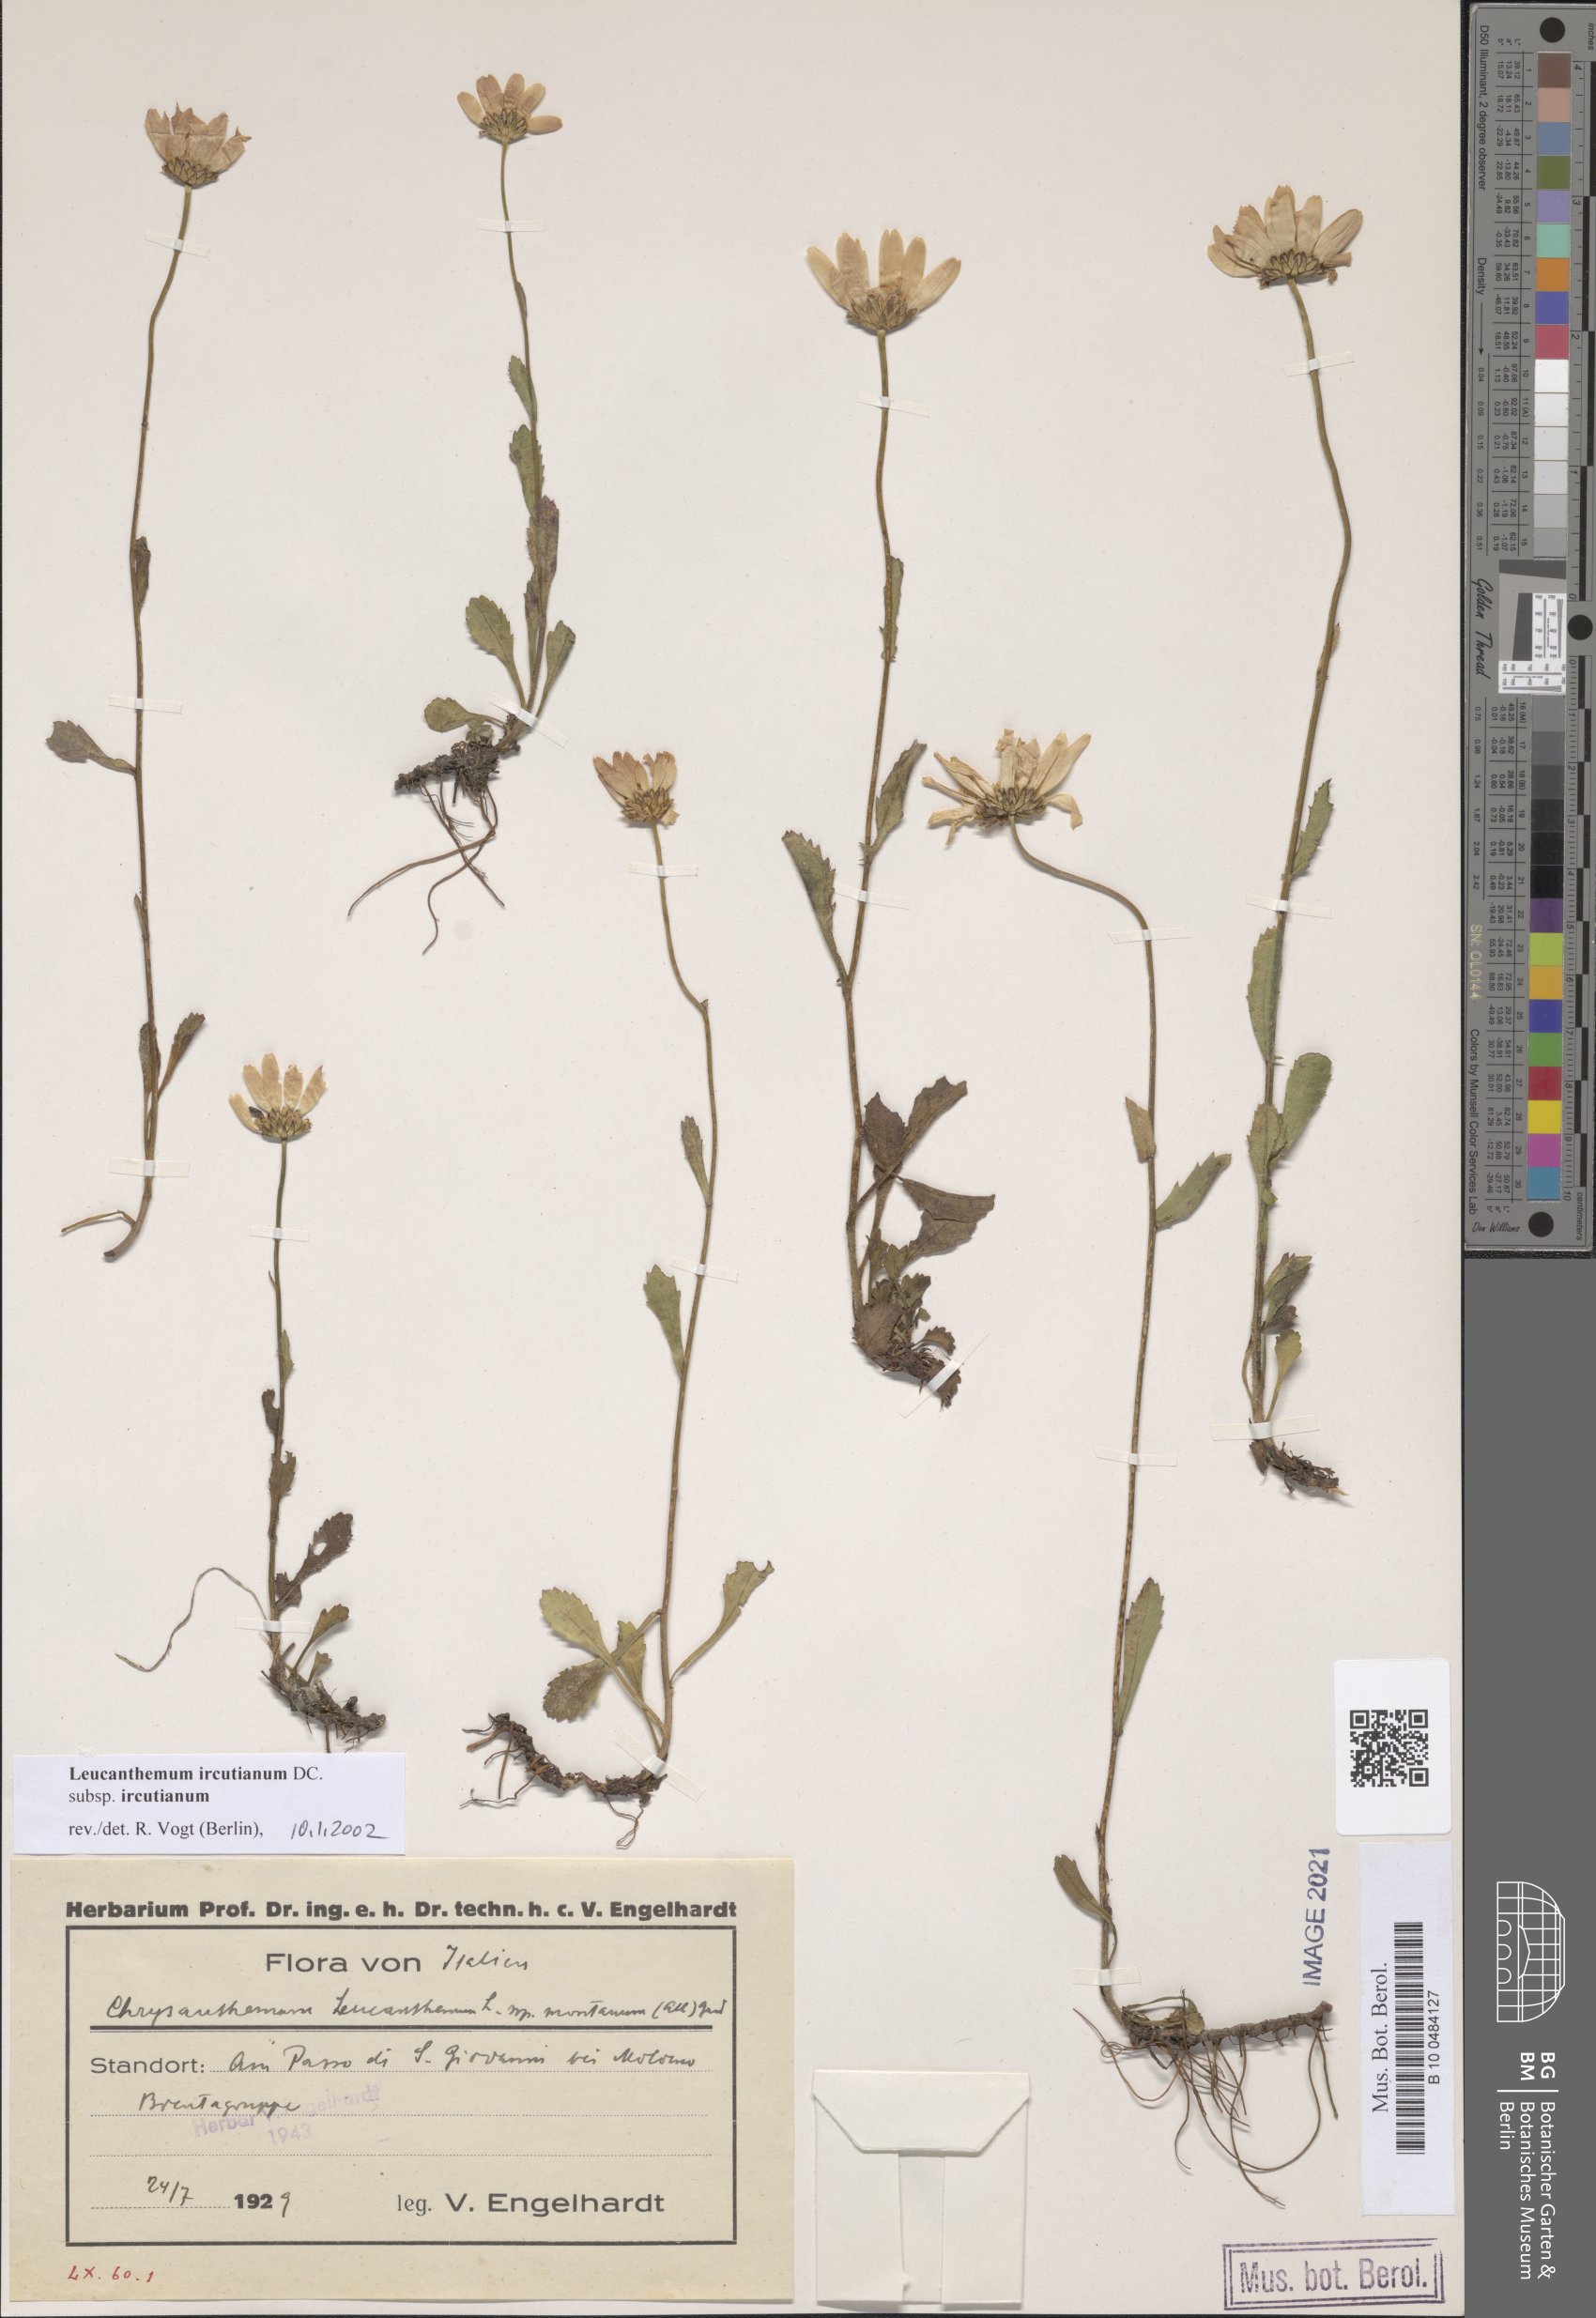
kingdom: Plantae
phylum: Tracheophyta
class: Magnoliopsida
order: Asterales
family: Asteraceae
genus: Leucanthemum
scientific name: Leucanthemum ircutianum
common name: Daisy
